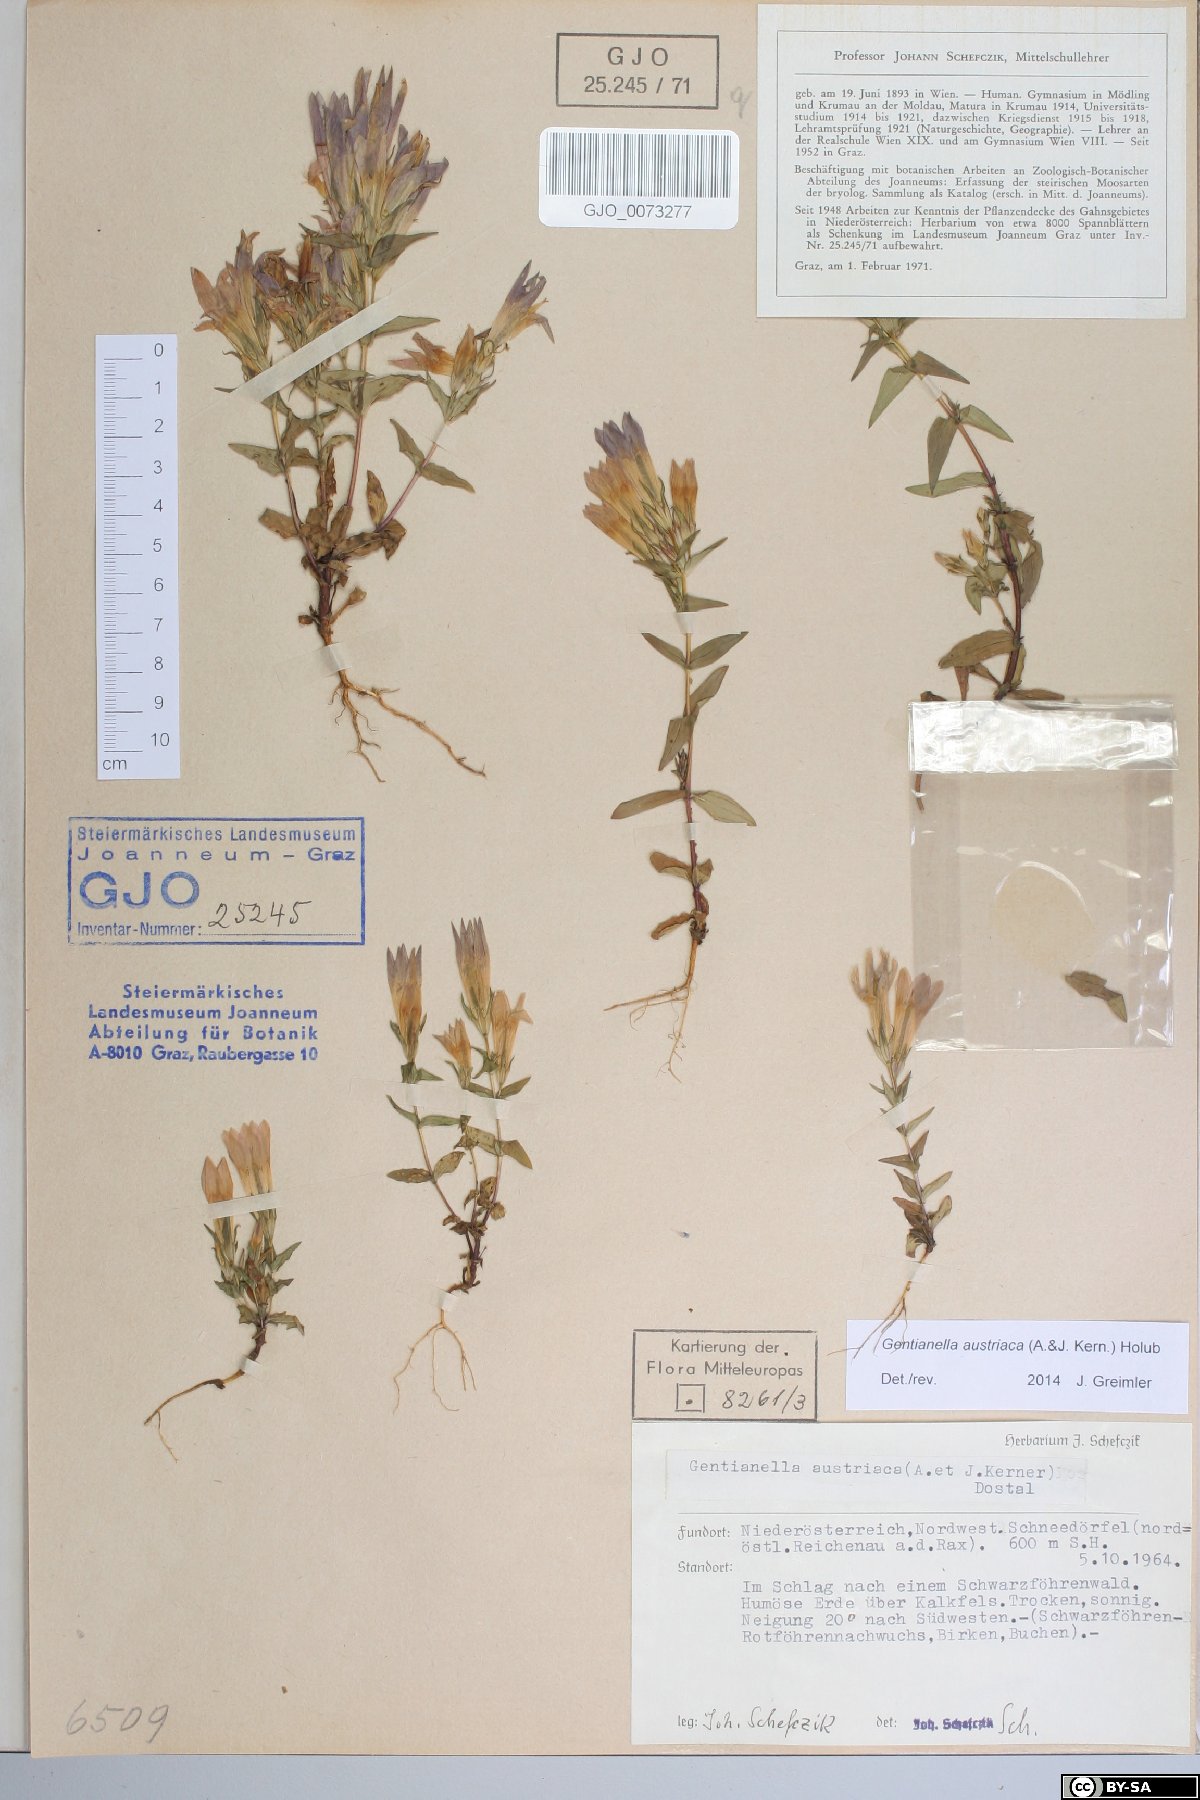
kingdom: Plantae
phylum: Tracheophyta
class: Magnoliopsida
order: Gentianales
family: Gentianaceae
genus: Gentianella
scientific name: Gentianella austriaca
